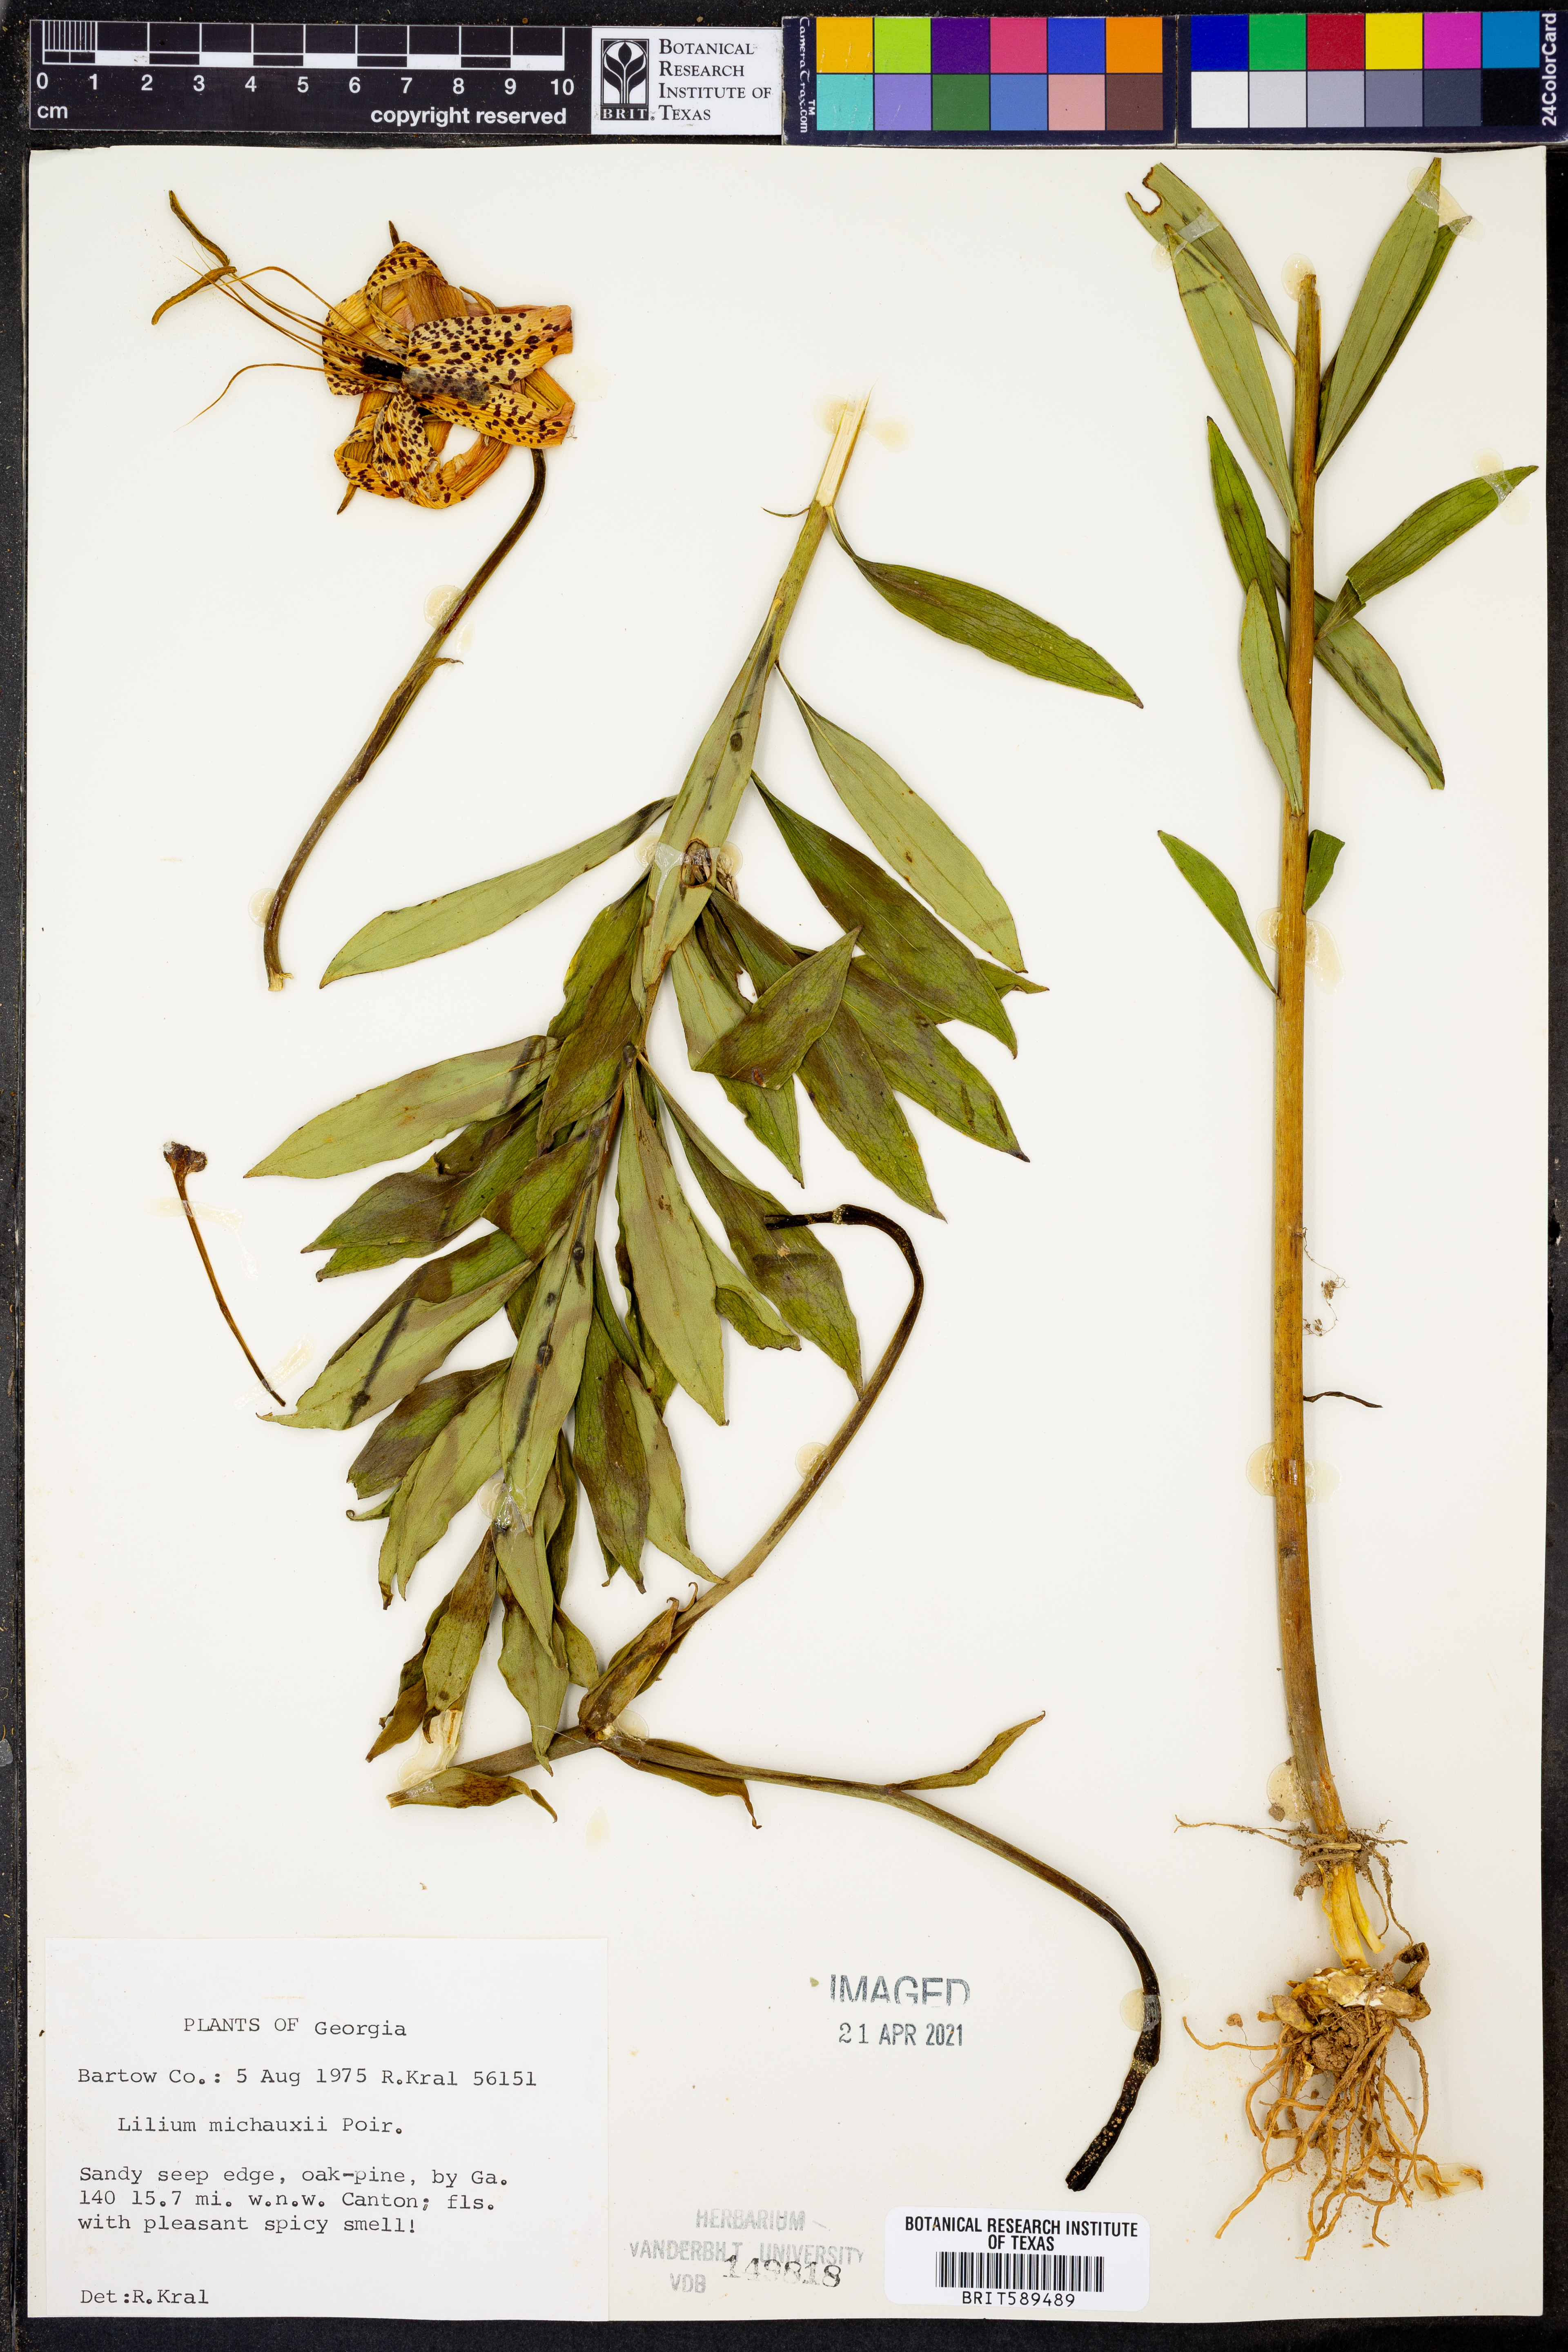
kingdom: Plantae
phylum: Tracheophyta
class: Liliopsida
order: Liliales
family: Liliaceae
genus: Lilium
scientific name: Lilium michauxii
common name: Carolina lily
